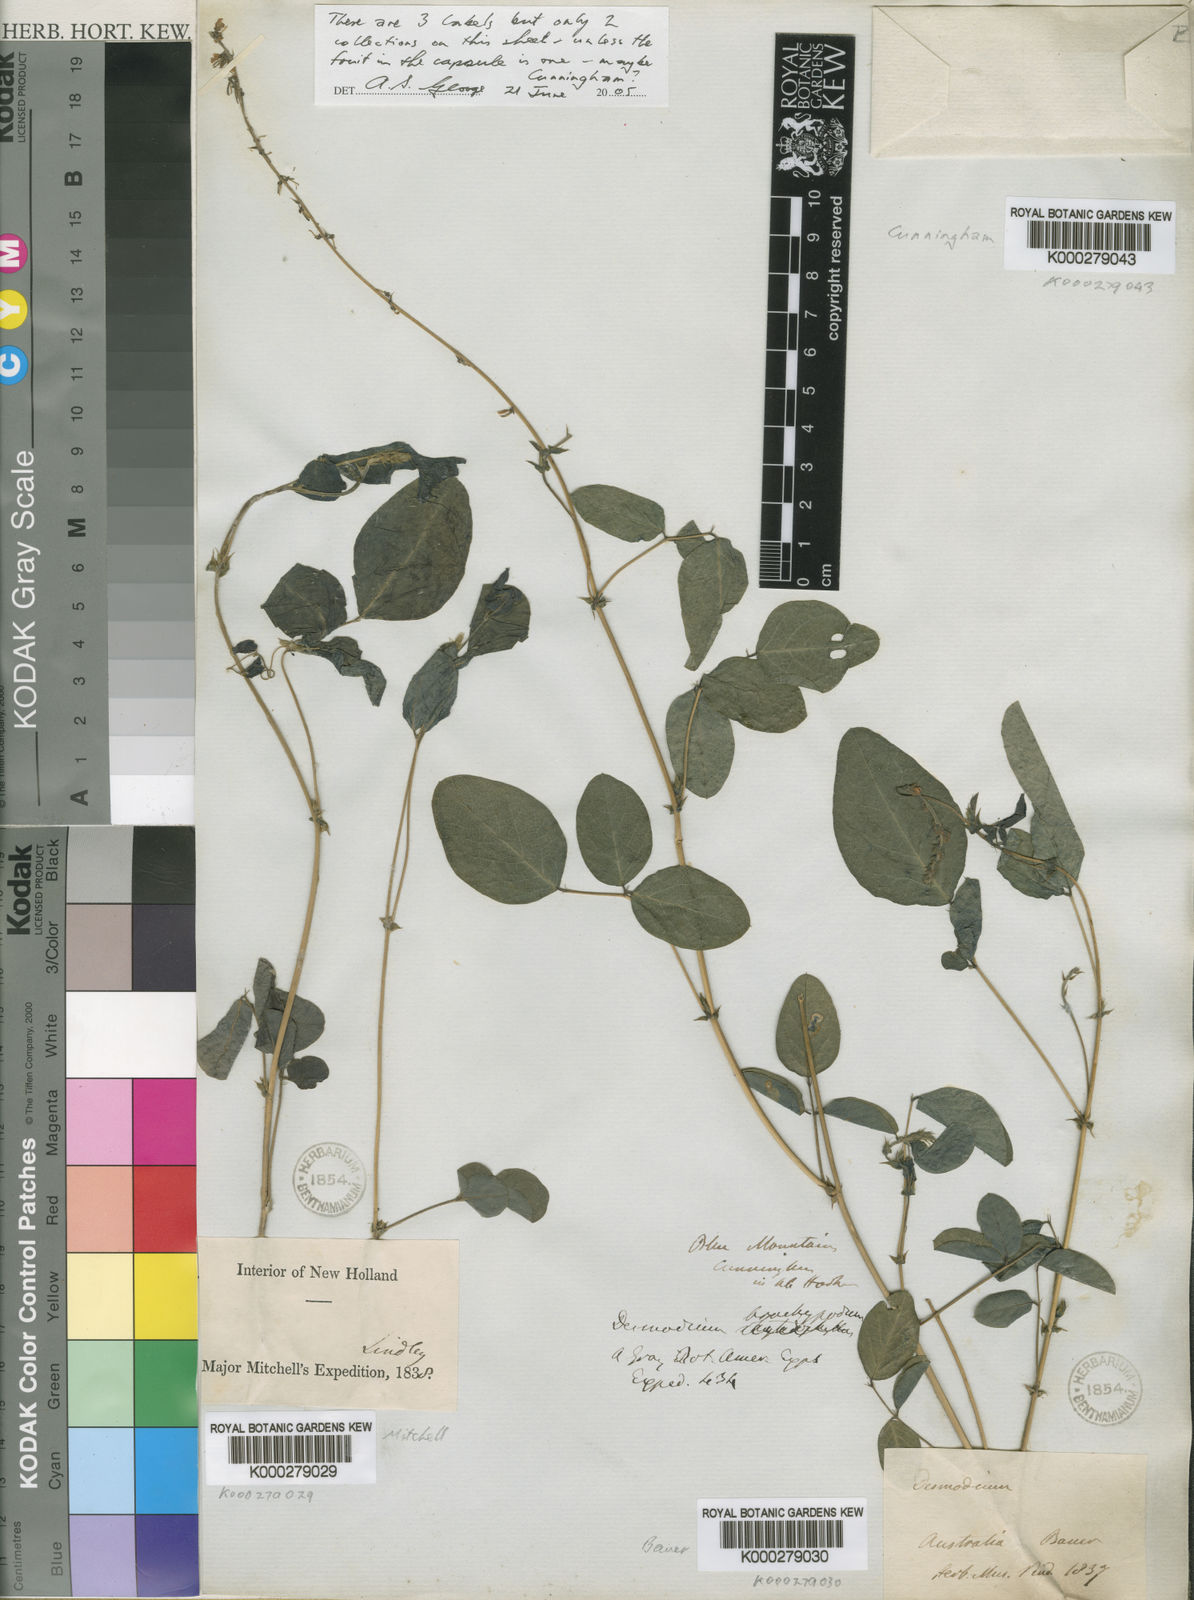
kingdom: Plantae
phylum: Tracheophyta
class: Magnoliopsida
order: Fabales
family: Fabaceae
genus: Desmodium
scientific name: Desmodium
